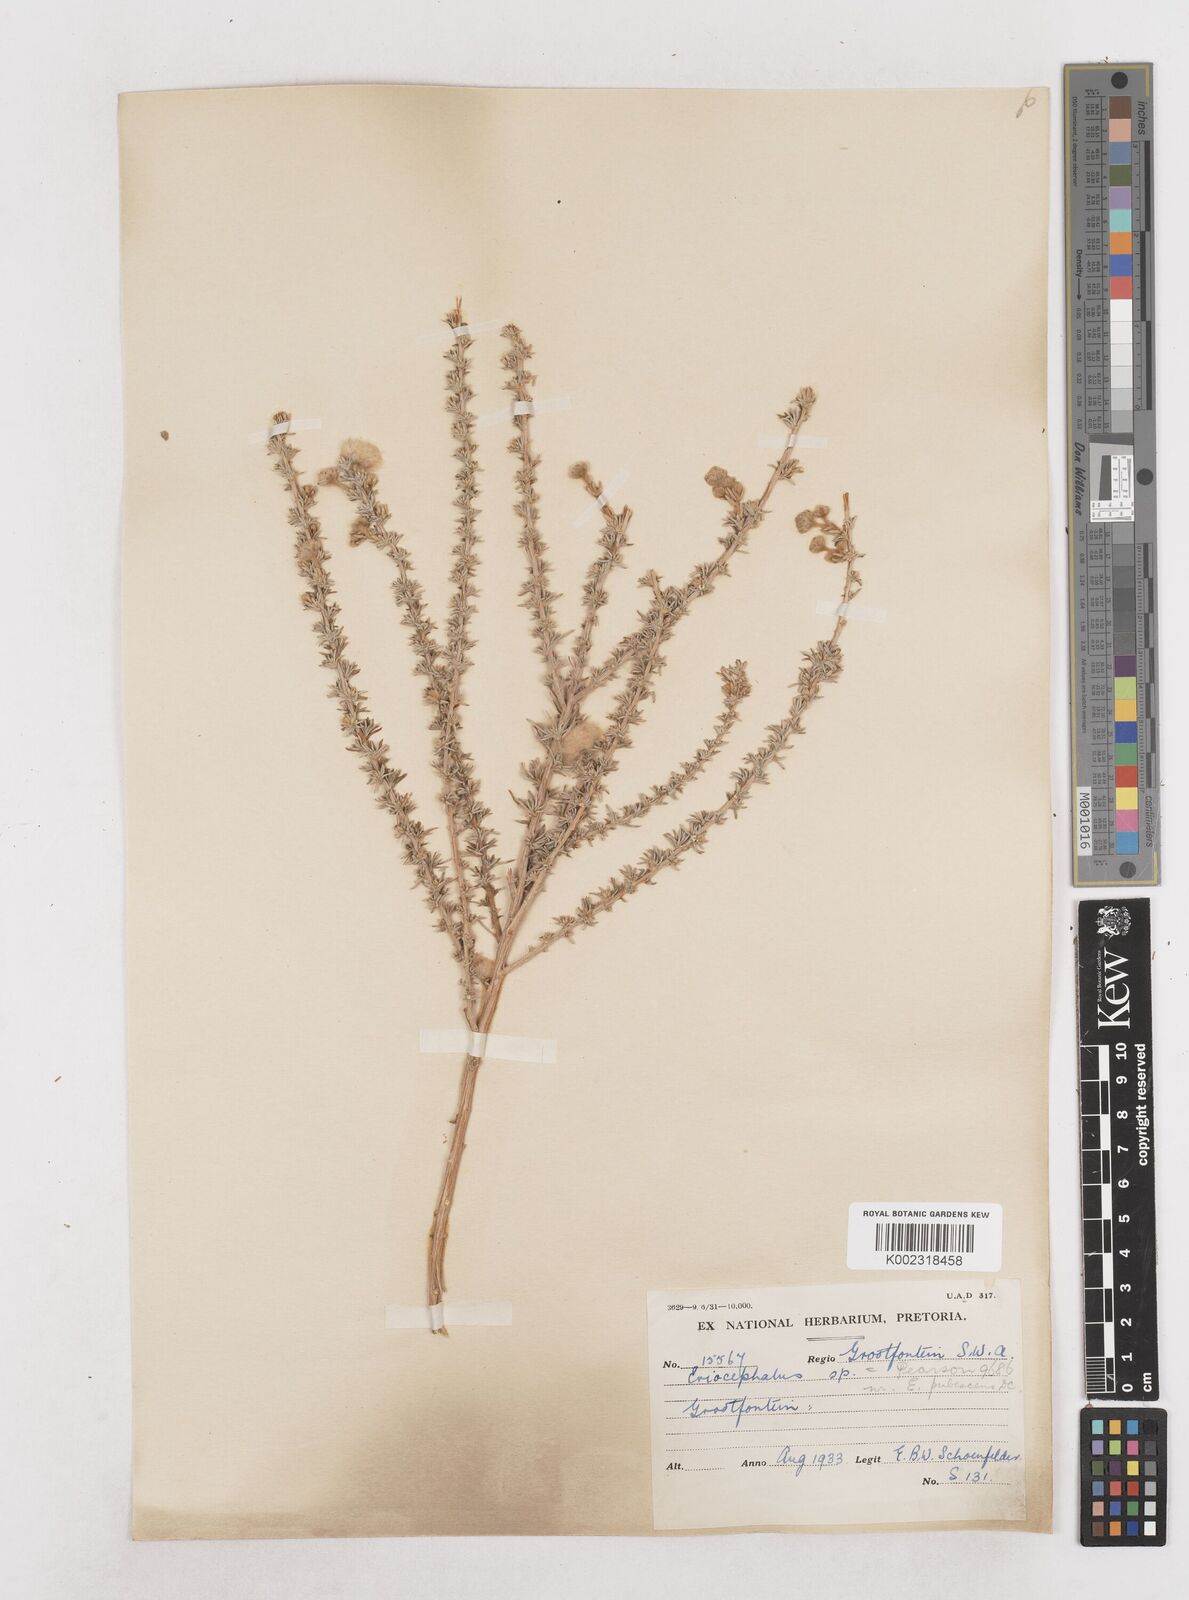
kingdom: Plantae
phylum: Tracheophyta
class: Magnoliopsida
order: Asterales
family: Asteraceae
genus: Eriocephalus
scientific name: Eriocephalus
